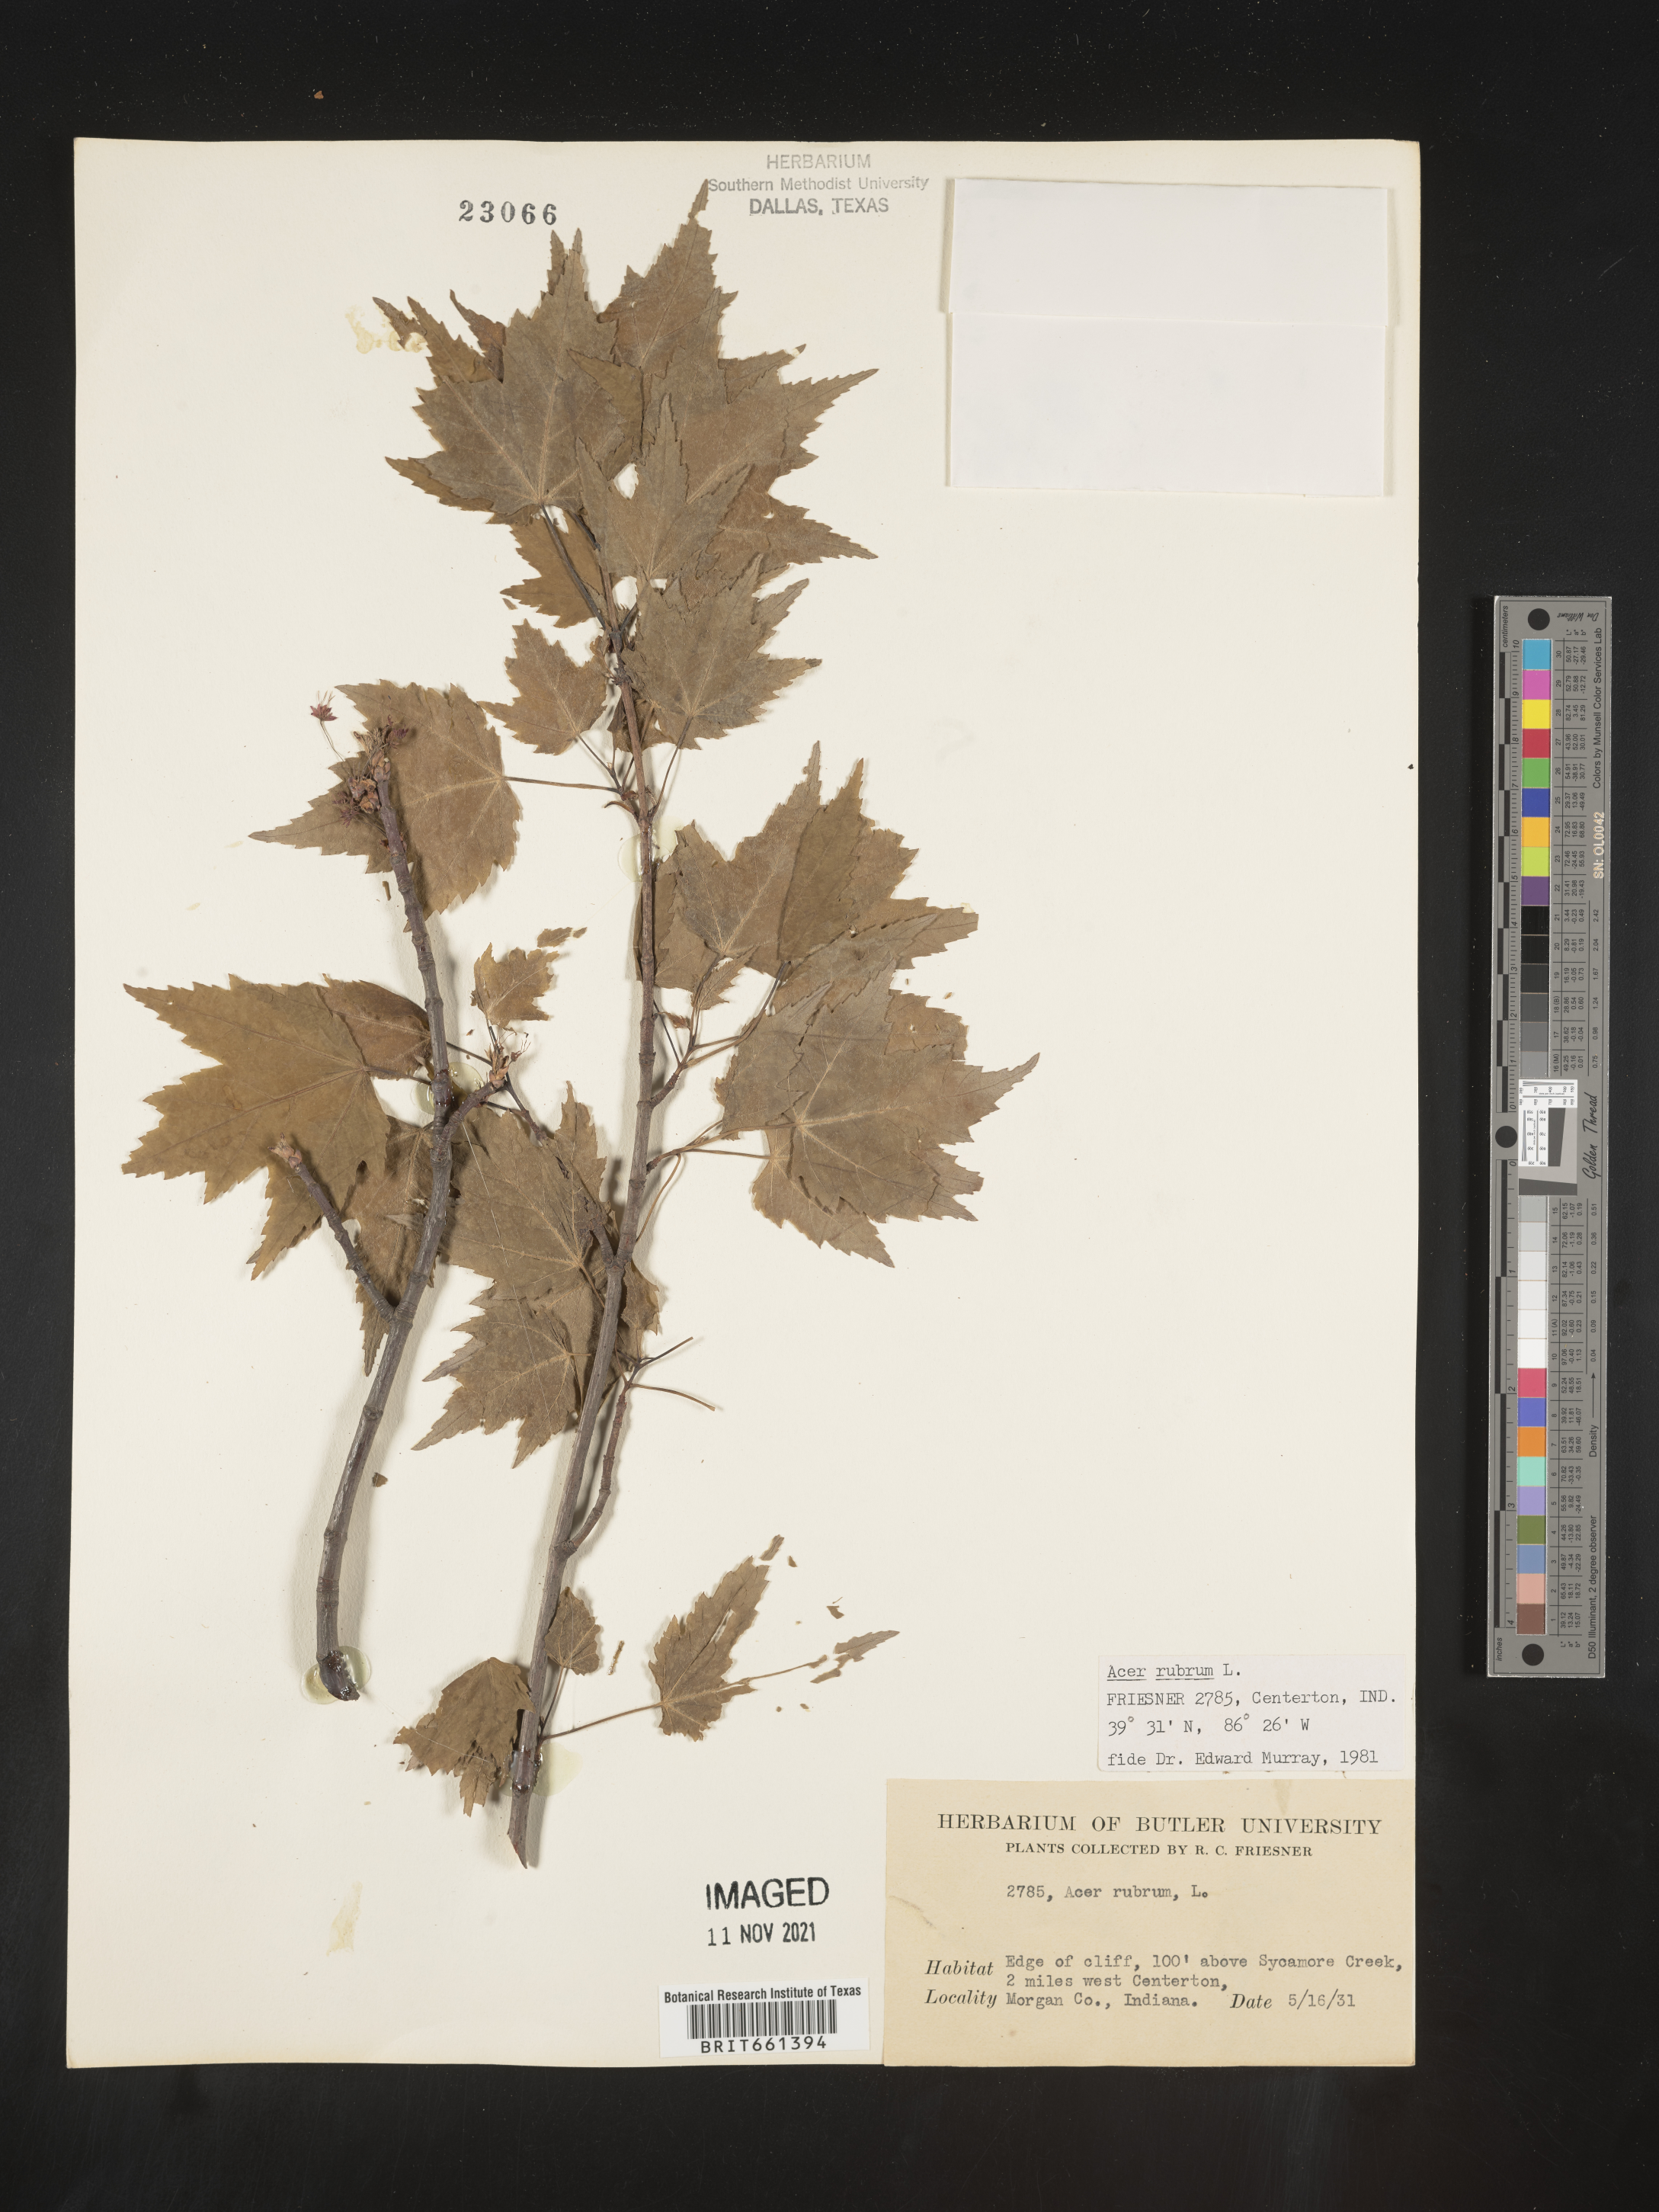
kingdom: Plantae
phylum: Tracheophyta
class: Magnoliopsida
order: Sapindales
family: Sapindaceae
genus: Acer
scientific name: Acer rubrum
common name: Red maple
